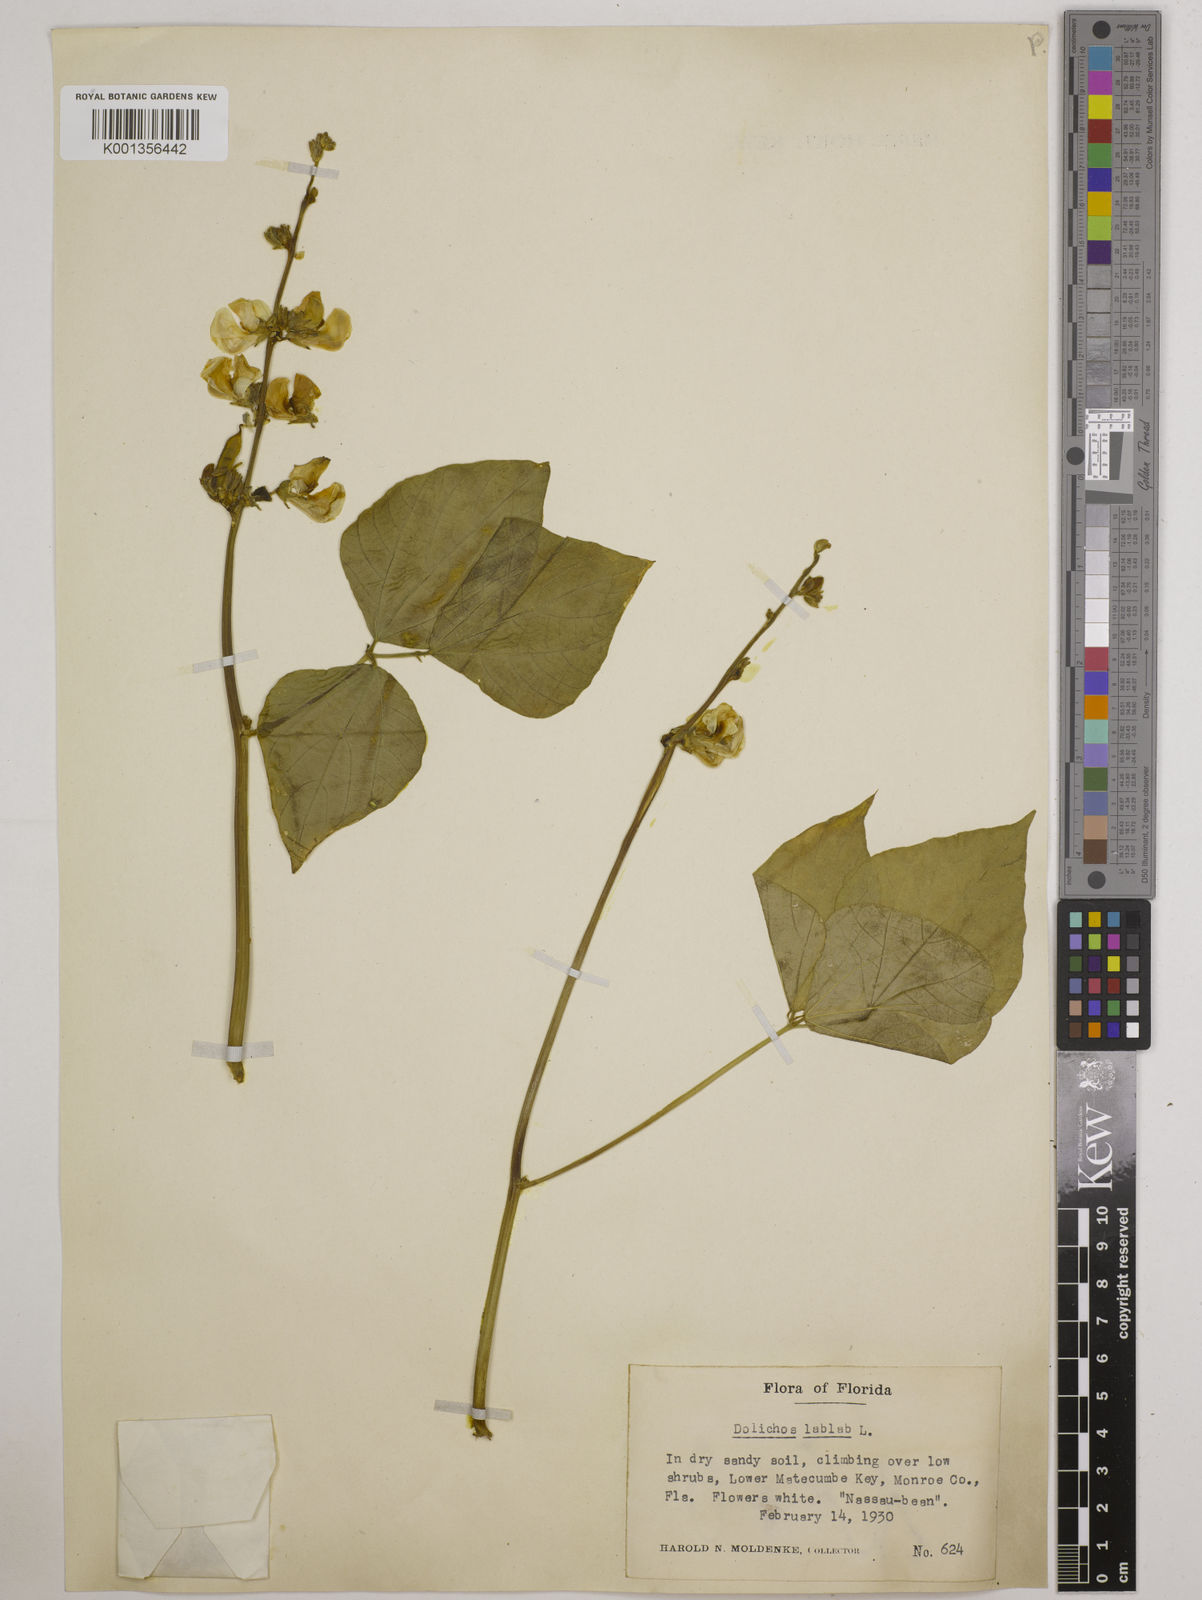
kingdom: Plantae
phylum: Tracheophyta
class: Magnoliopsida
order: Fabales
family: Fabaceae
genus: Lablab
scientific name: Lablab purpureus
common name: Lablab-bean
